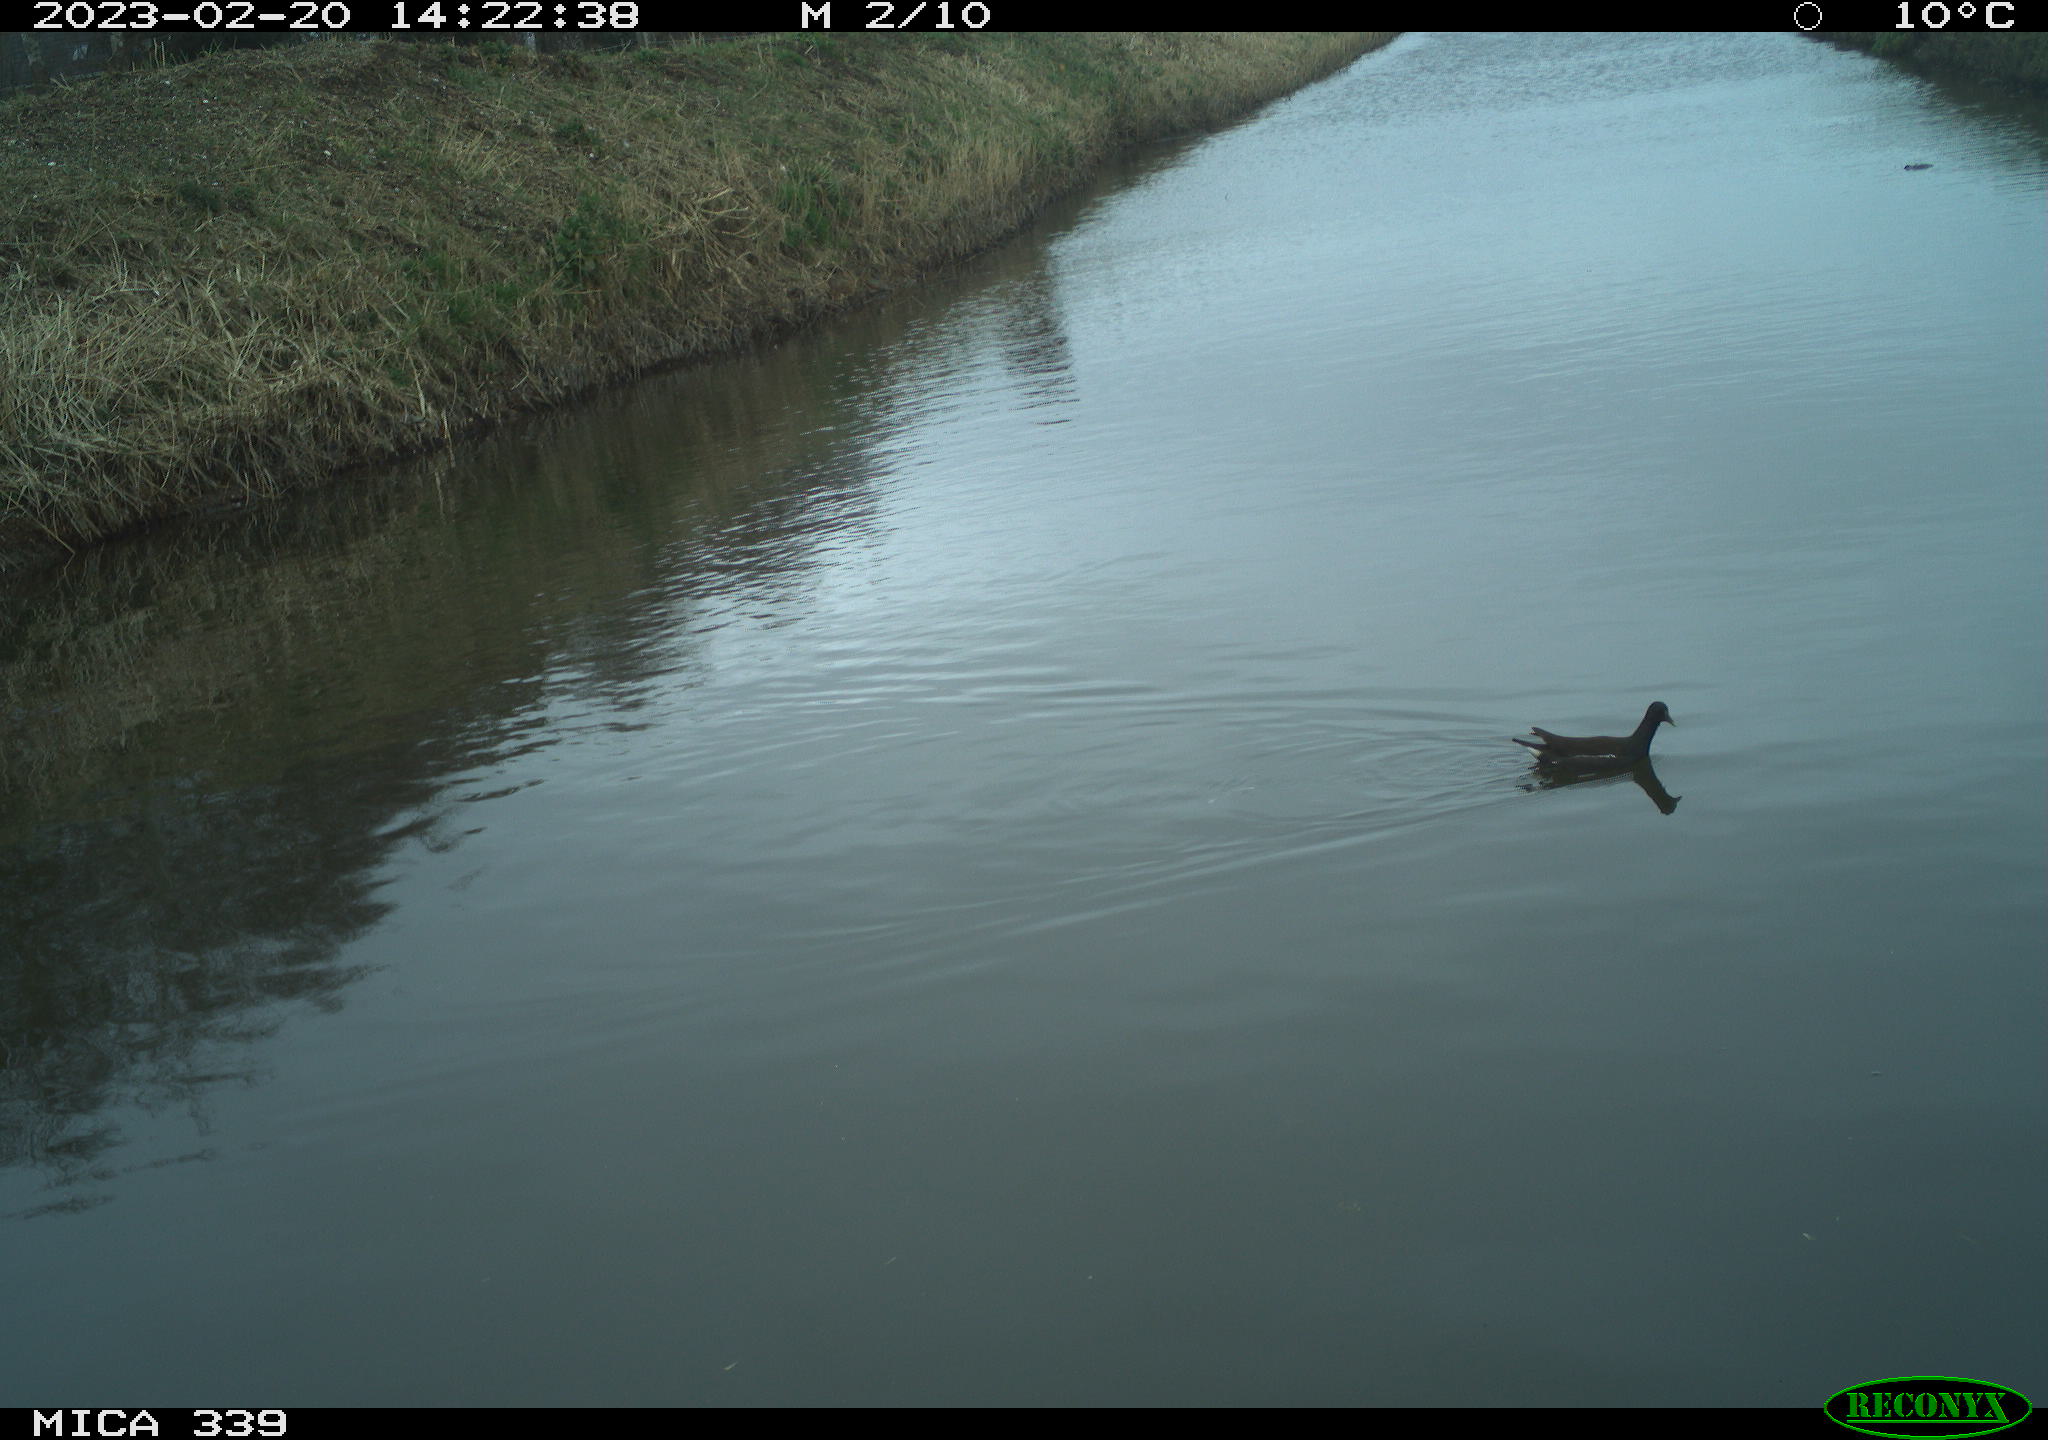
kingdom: Animalia
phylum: Chordata
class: Aves
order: Gruiformes
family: Rallidae
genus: Gallinula
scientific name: Gallinula chloropus
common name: Common moorhen
